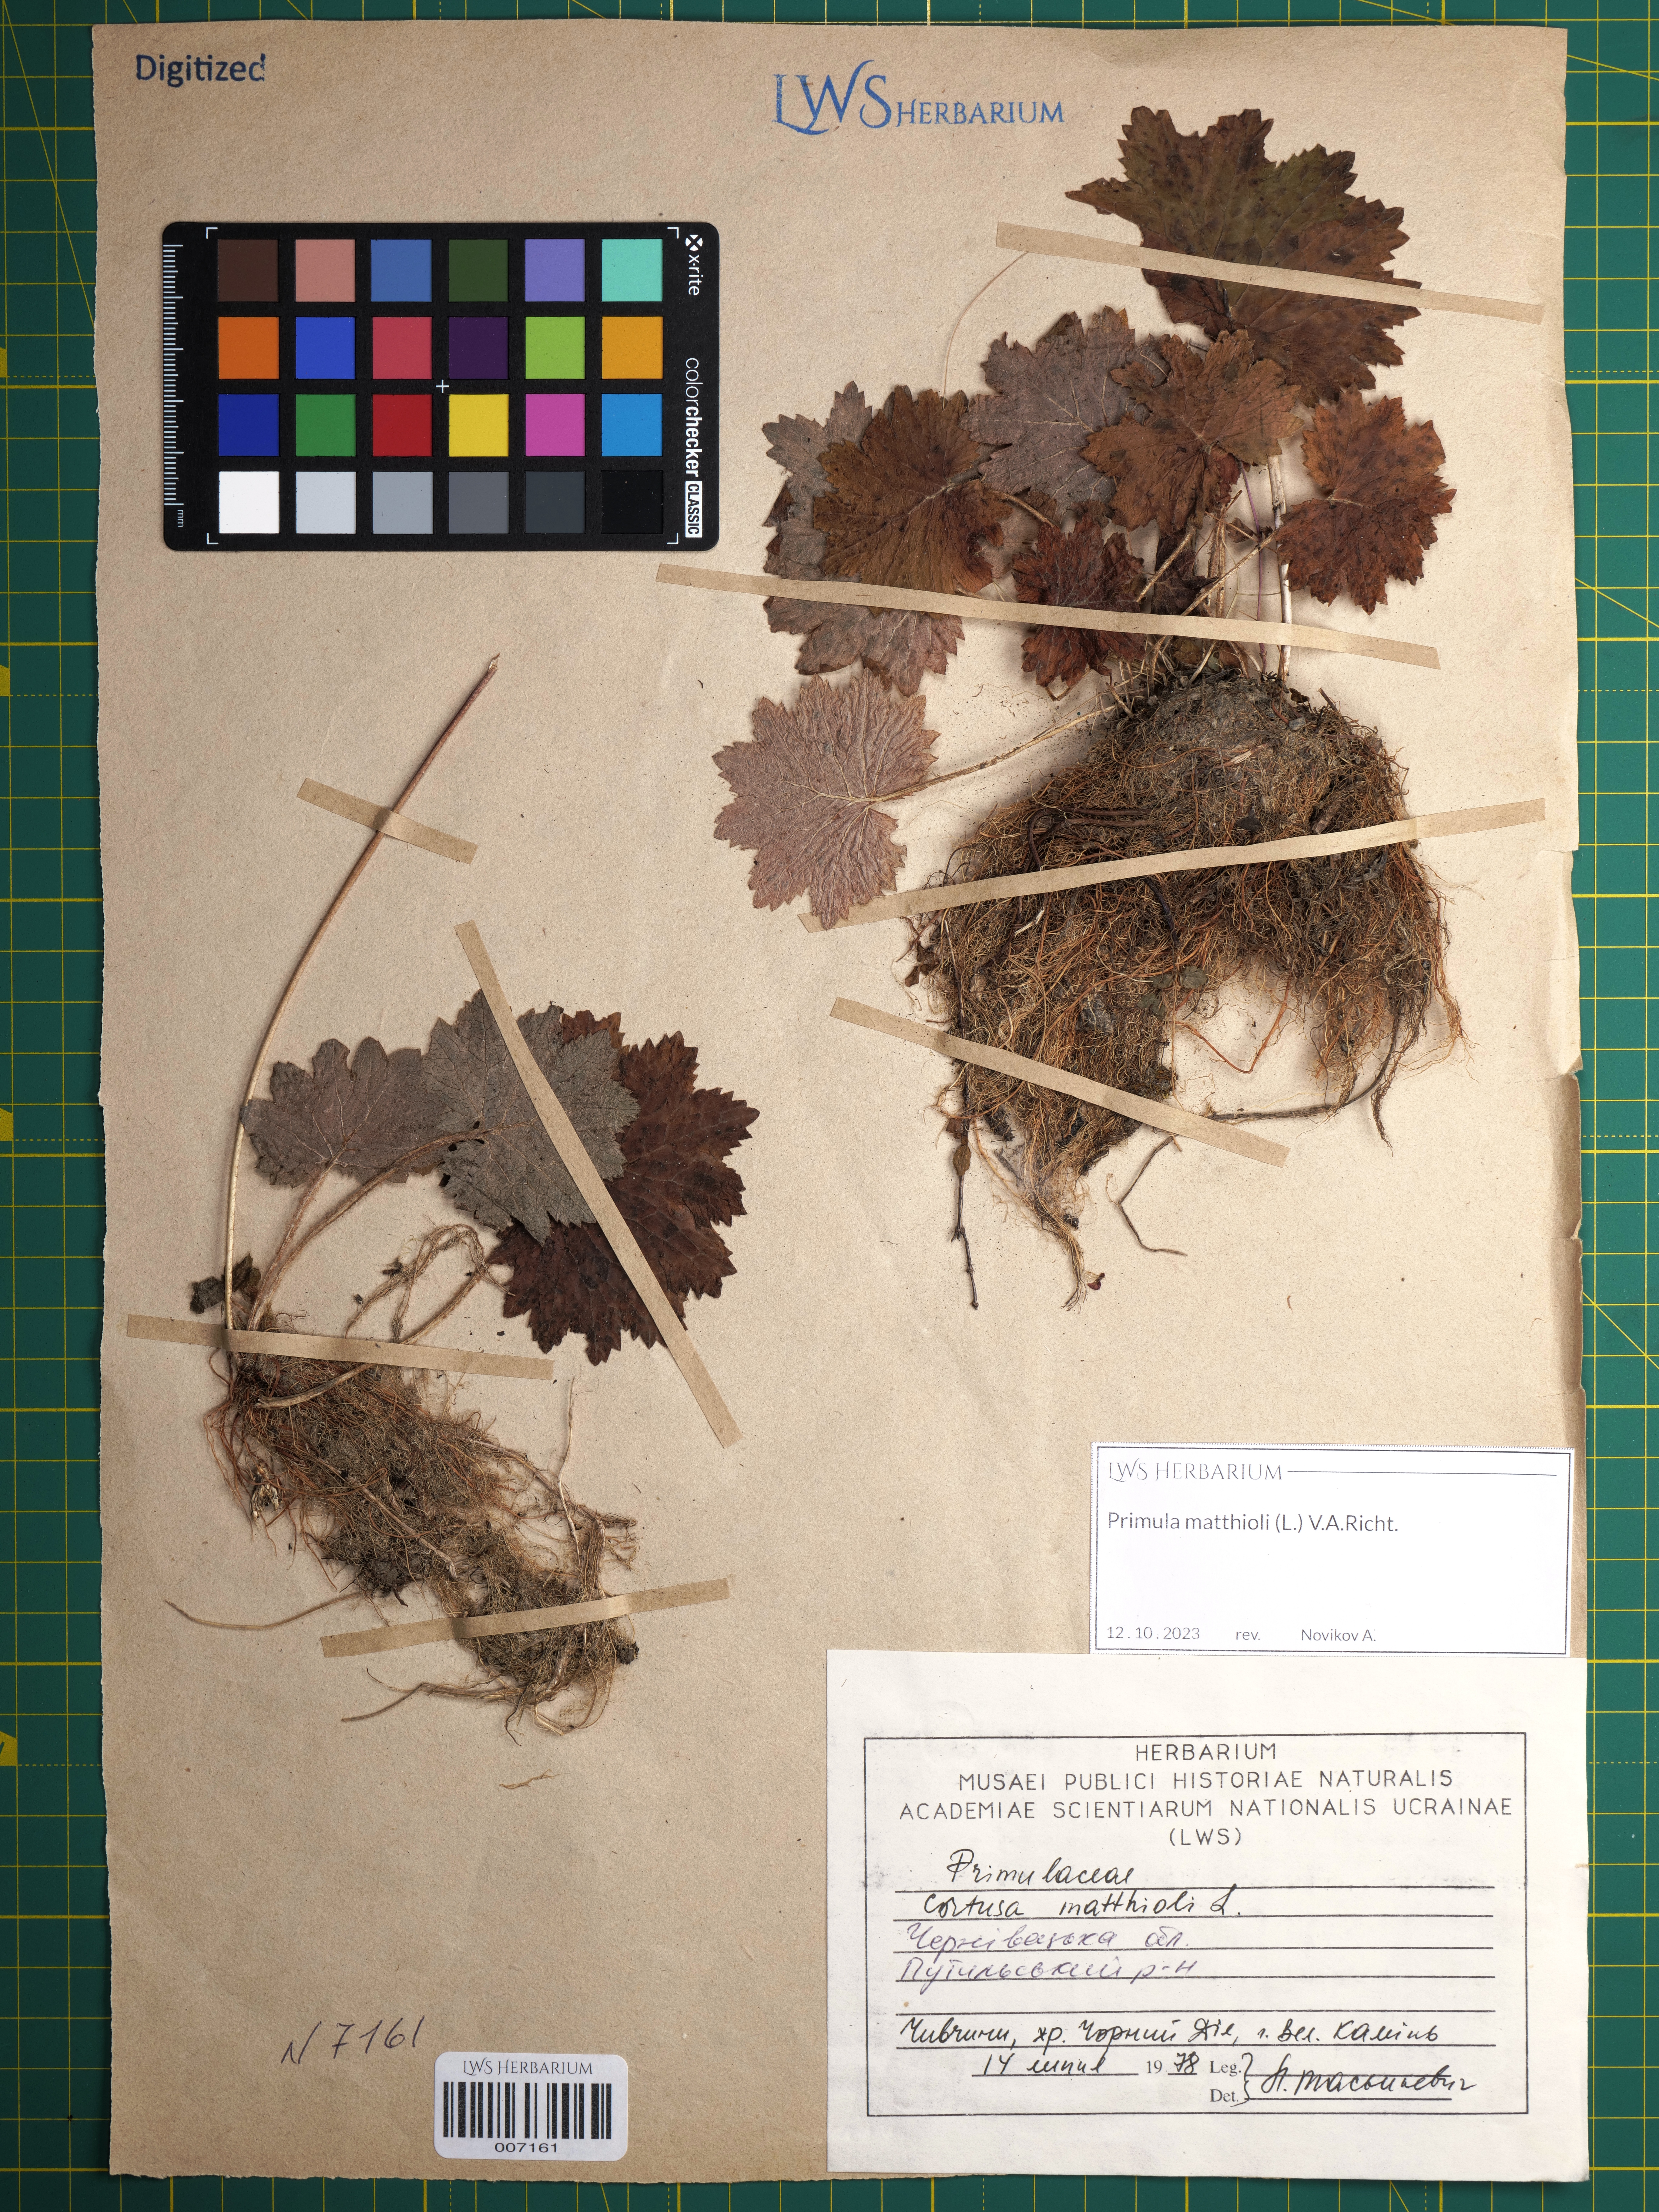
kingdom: Plantae
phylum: Tracheophyta
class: Magnoliopsida
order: Ericales
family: Primulaceae
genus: Primula
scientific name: Primula matthioli
